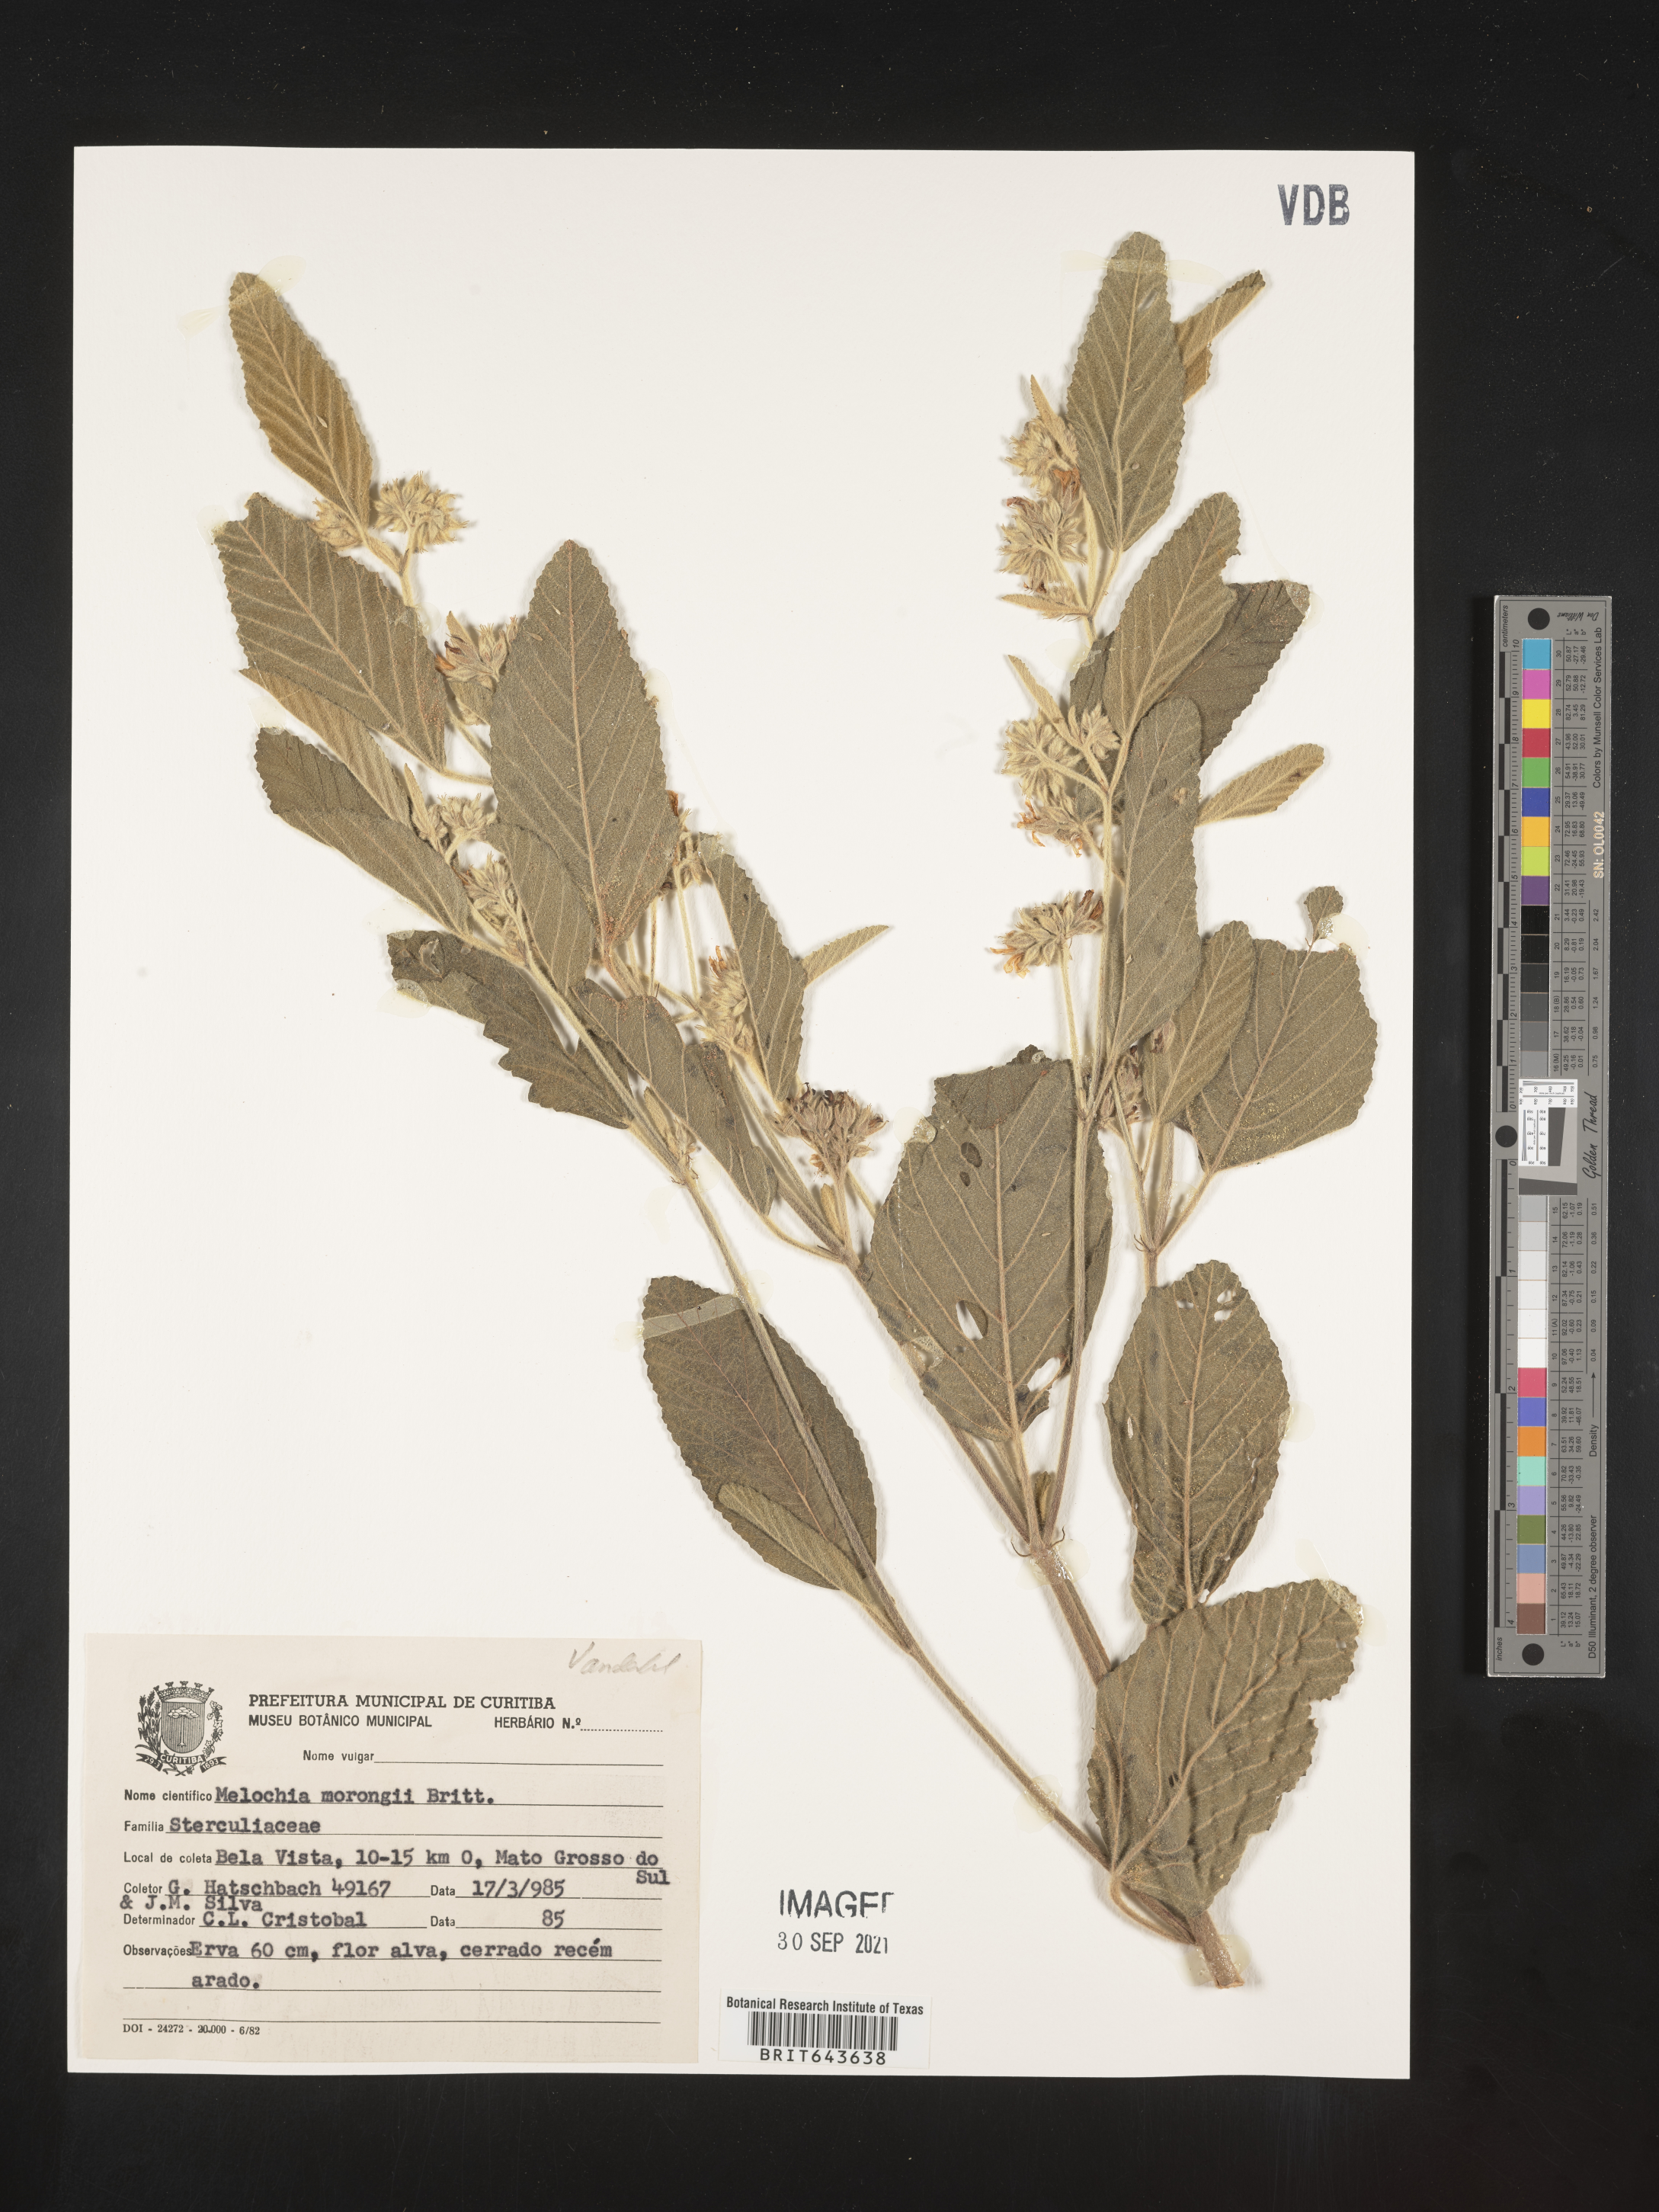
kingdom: Plantae
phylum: Tracheophyta
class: Magnoliopsida
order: Malvales
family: Malvaceae
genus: Melochia
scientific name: Melochia
